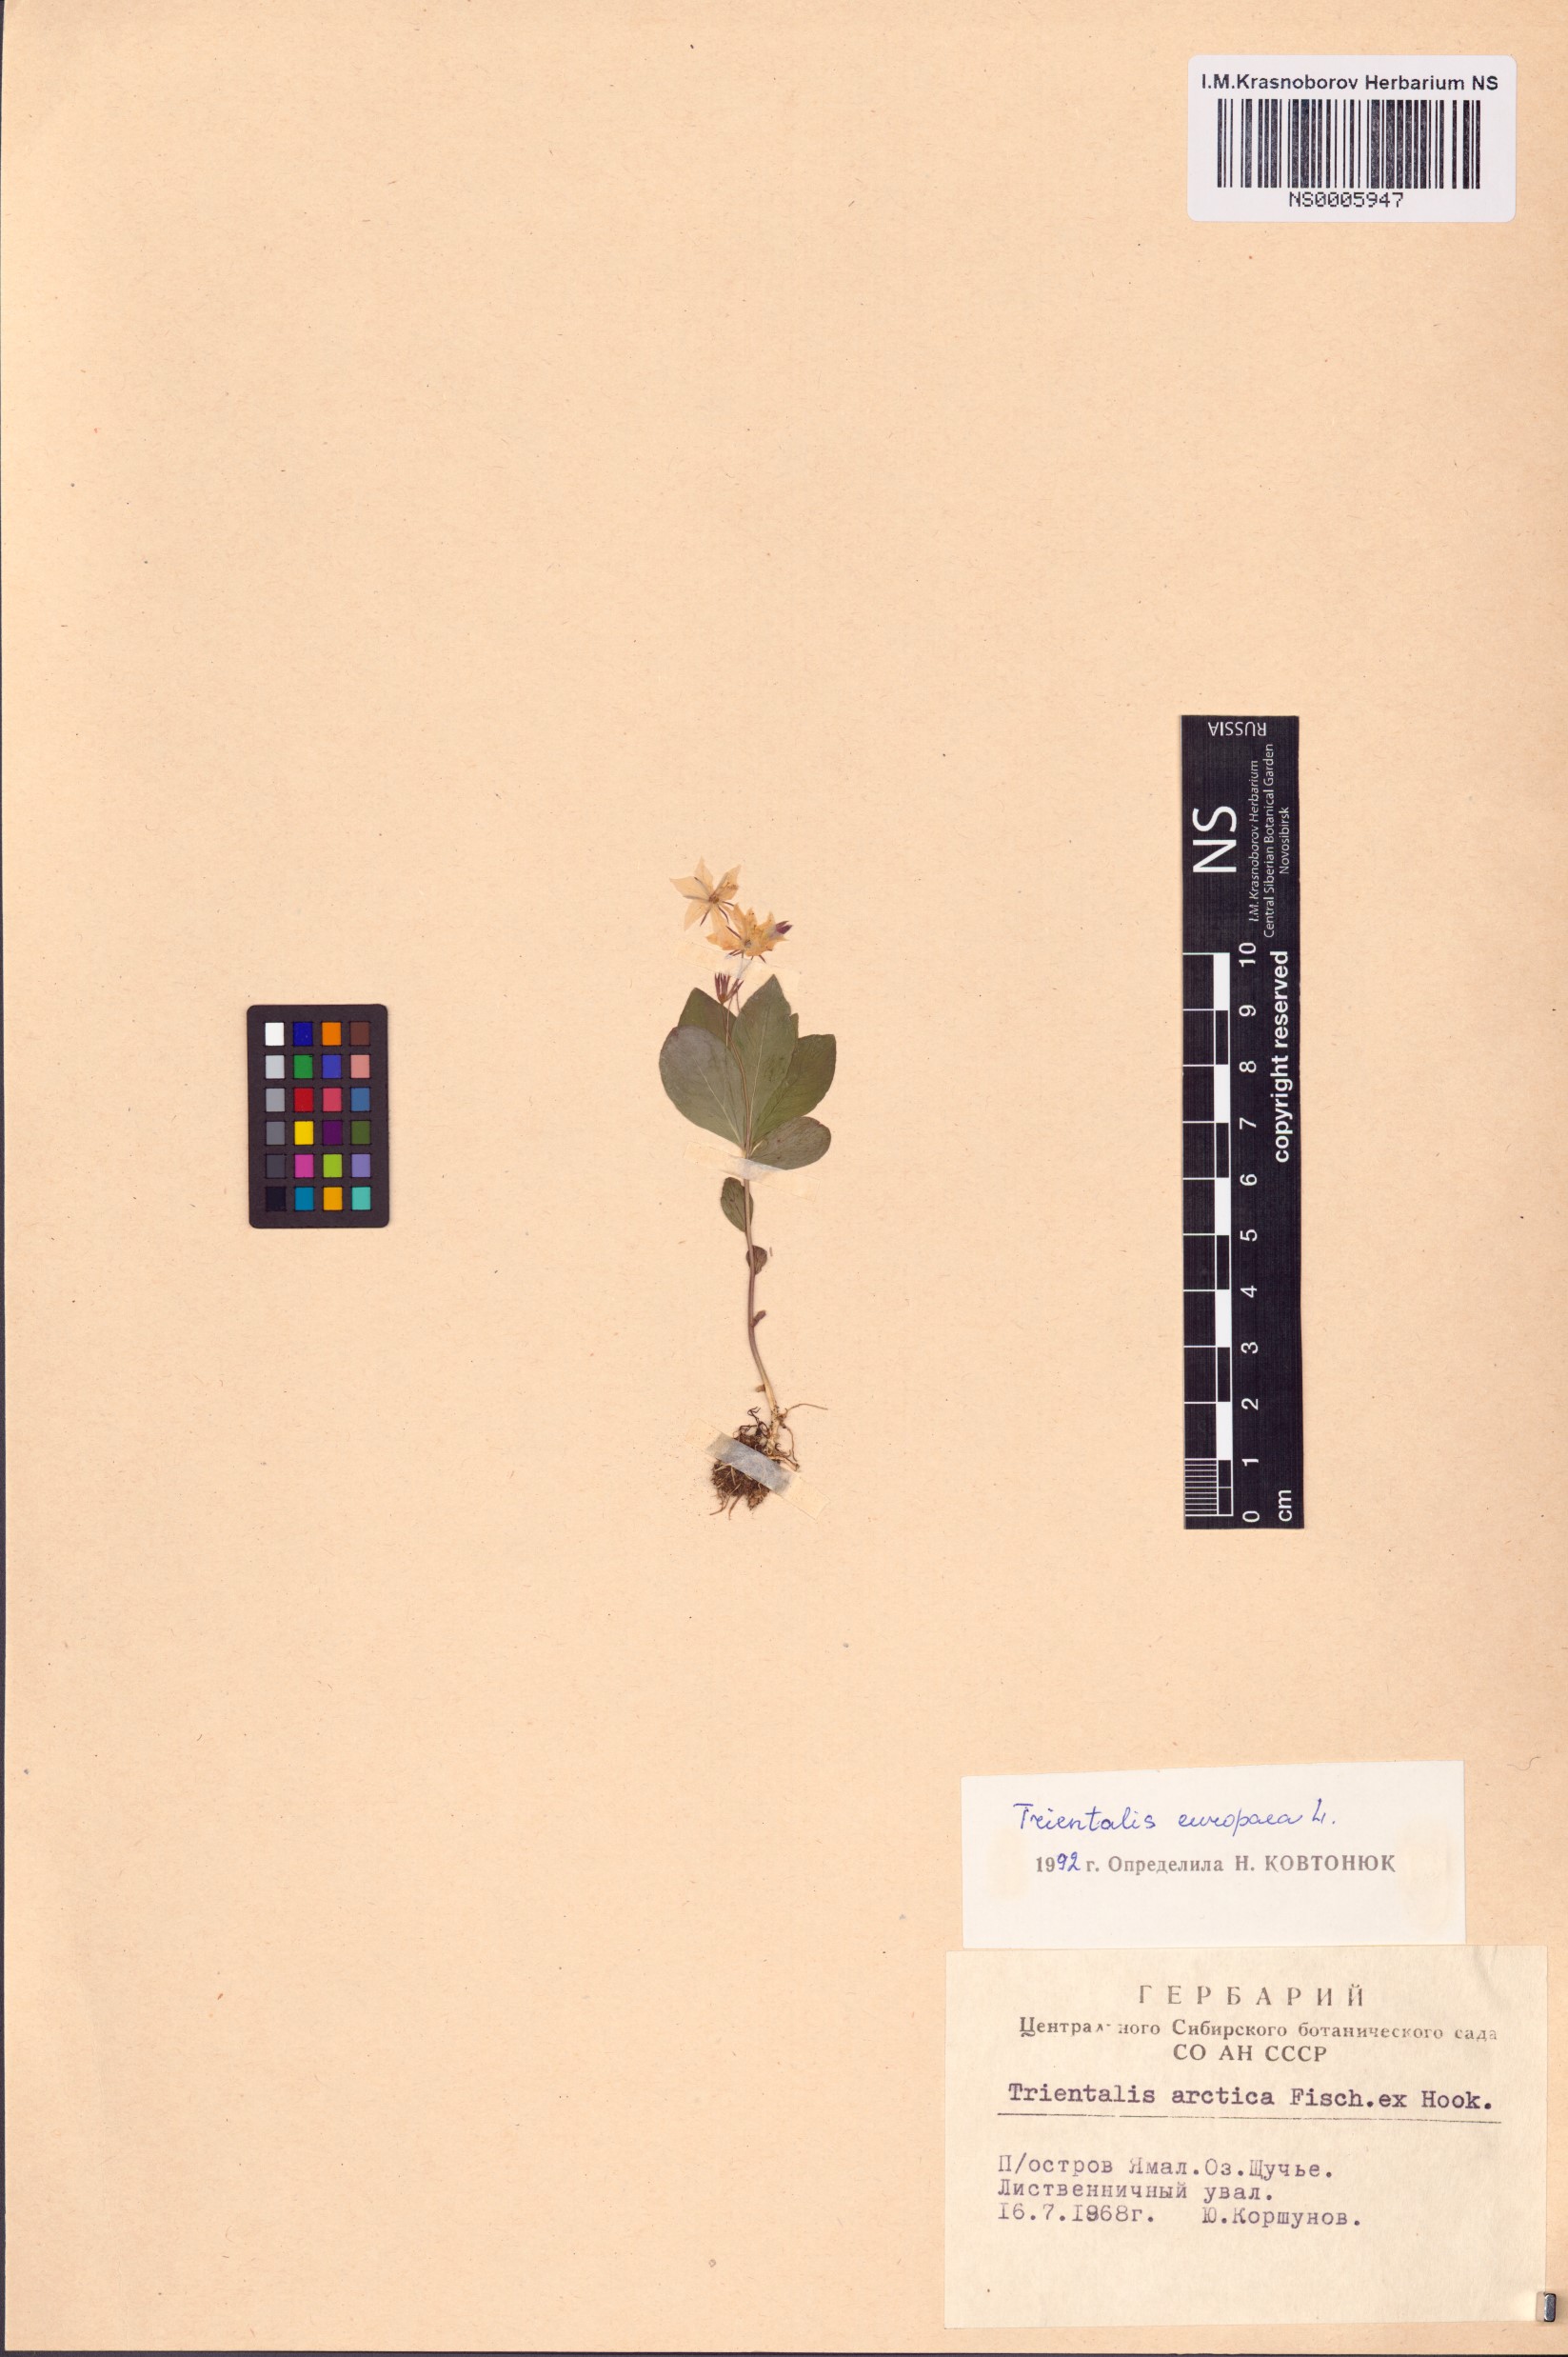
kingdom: Plantae
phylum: Tracheophyta
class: Magnoliopsida
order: Ericales
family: Primulaceae
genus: Lysimachia
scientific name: Lysimachia europaea
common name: Arctic starflower
